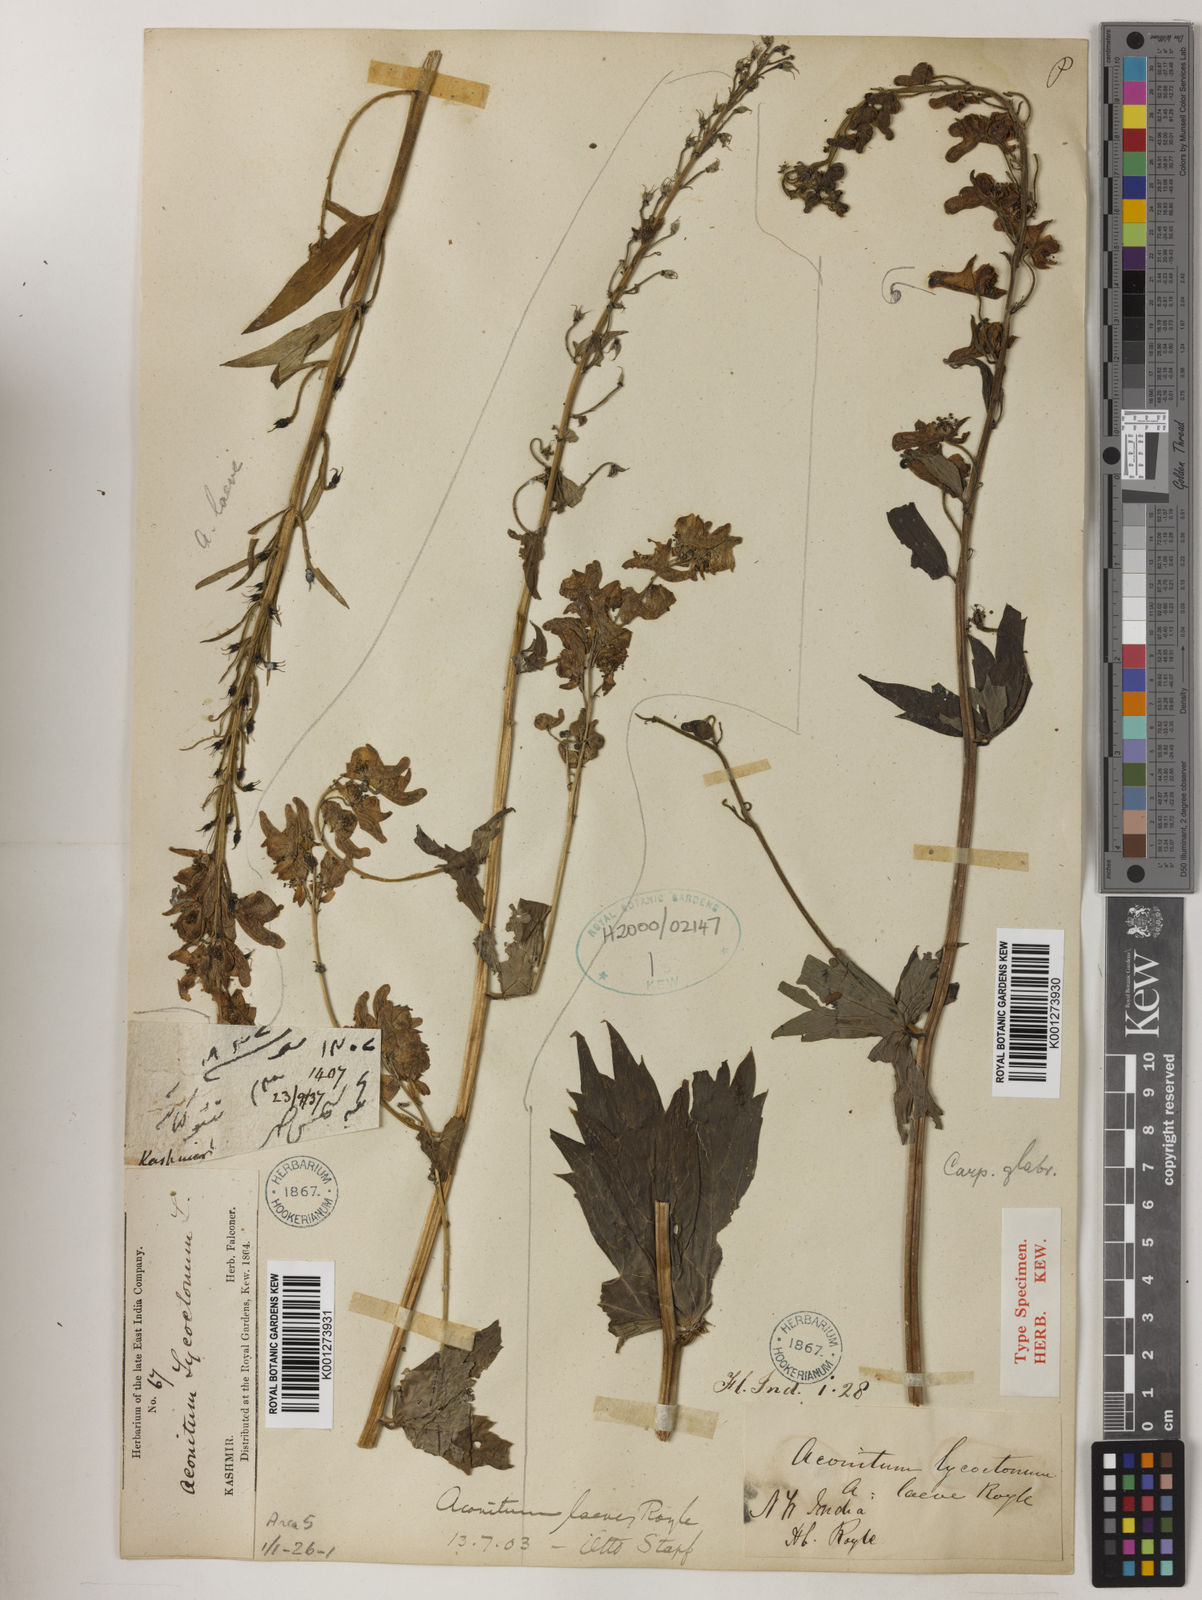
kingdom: Plantae
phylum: Tracheophyta
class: Magnoliopsida
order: Ranunculales
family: Ranunculaceae
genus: Aconitum
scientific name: Aconitum lycoctonum
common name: Wolf's-bane
